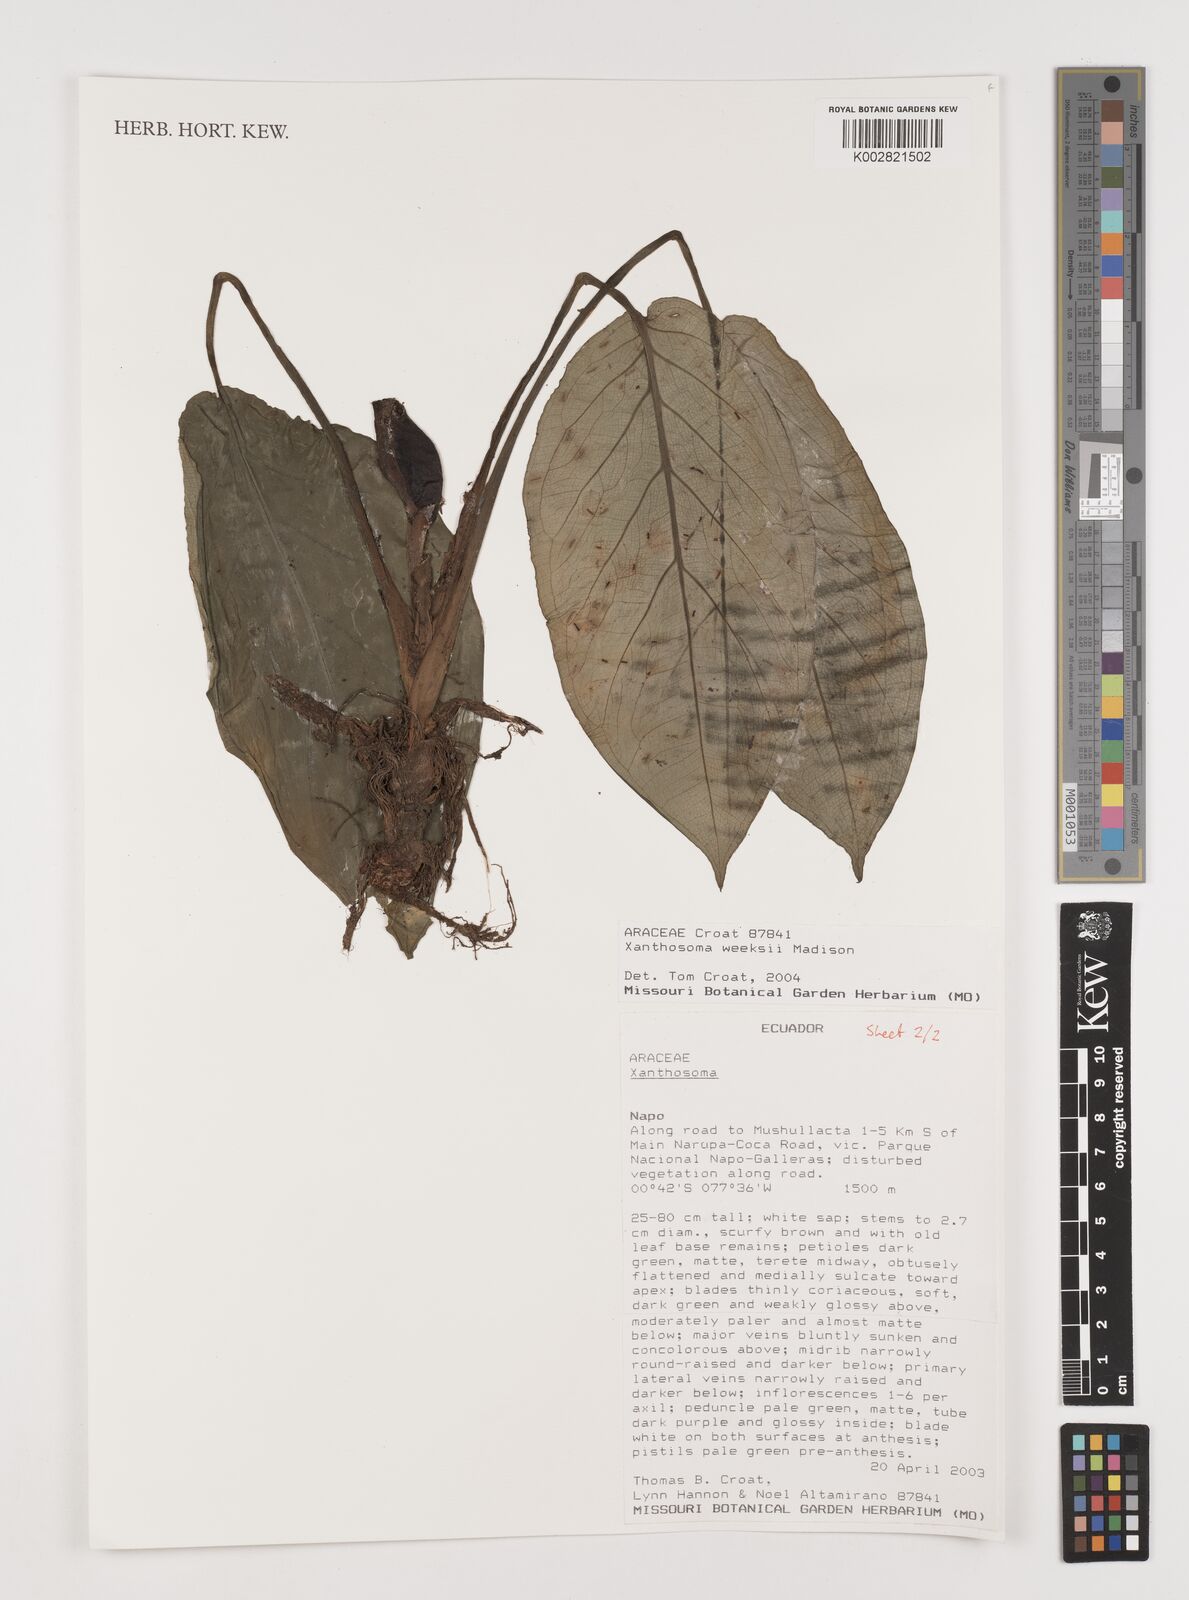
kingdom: Plantae
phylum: Tracheophyta
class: Liliopsida
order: Alismatales
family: Araceae
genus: Xanthosoma
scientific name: Xanthosoma weeksii
